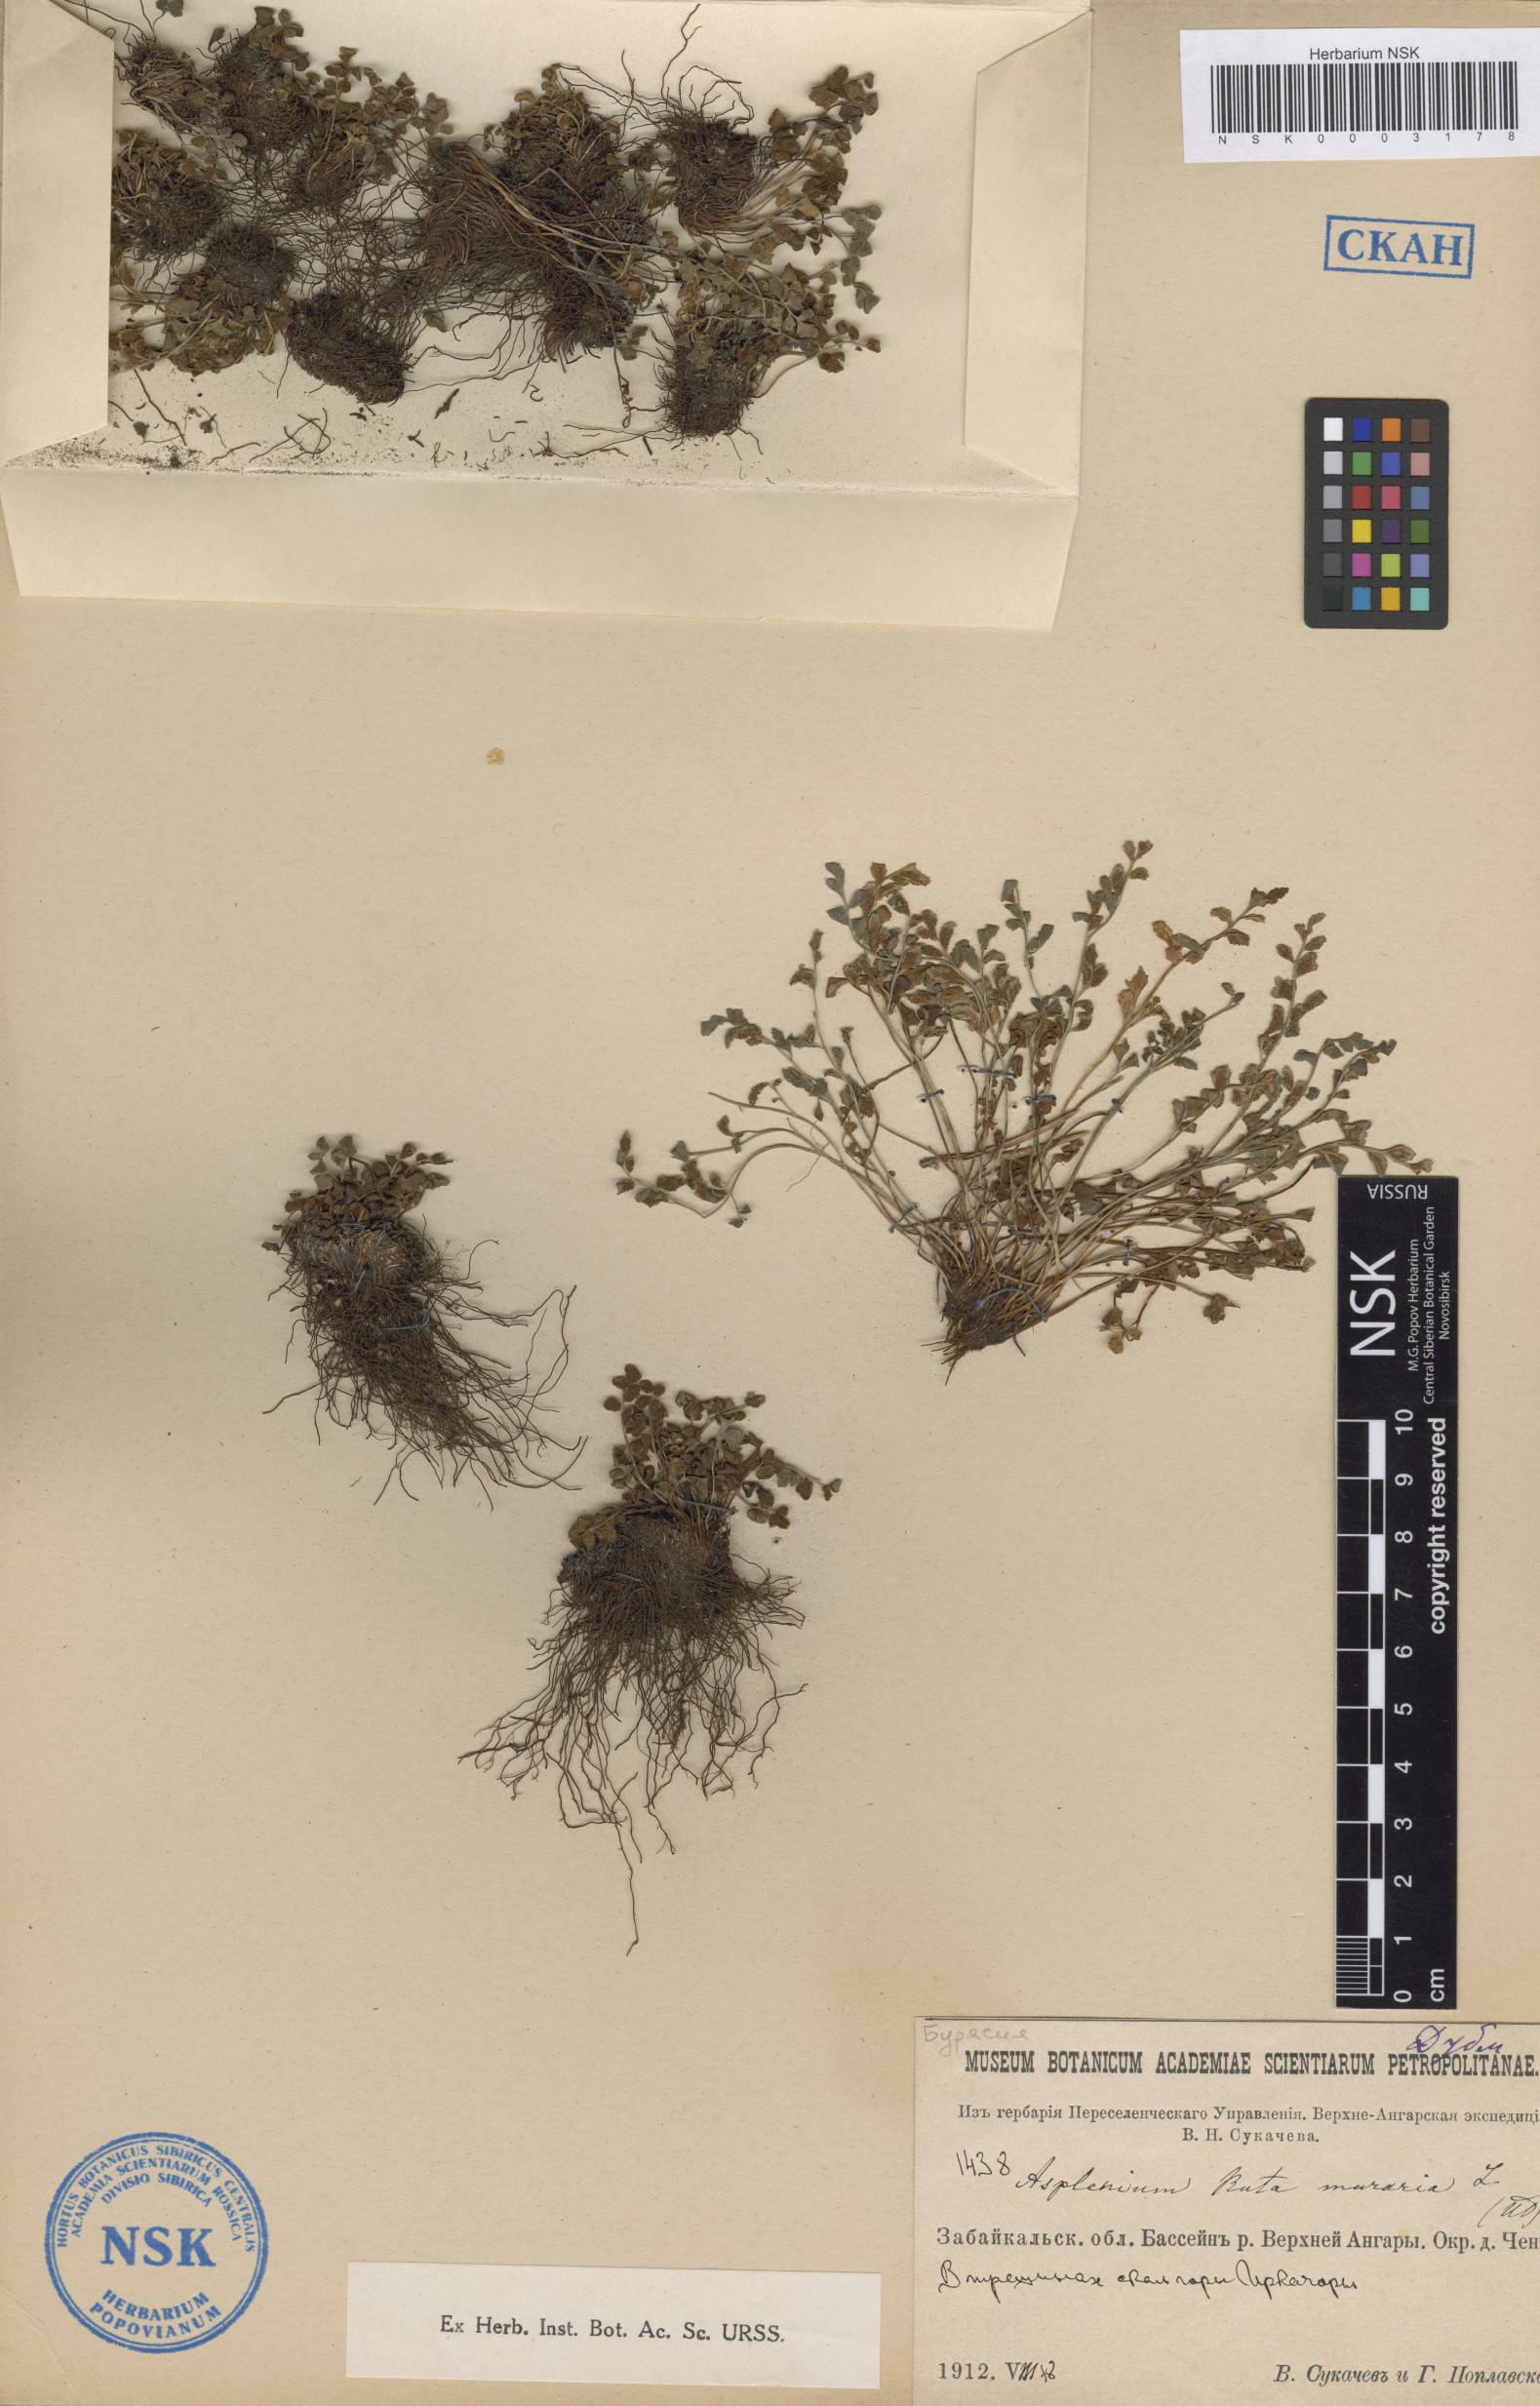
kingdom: Plantae
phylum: Tracheophyta
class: Polypodiopsida
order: Polypodiales
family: Aspleniaceae
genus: Asplenium
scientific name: Asplenium ruta-muraria
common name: Wall-rue
